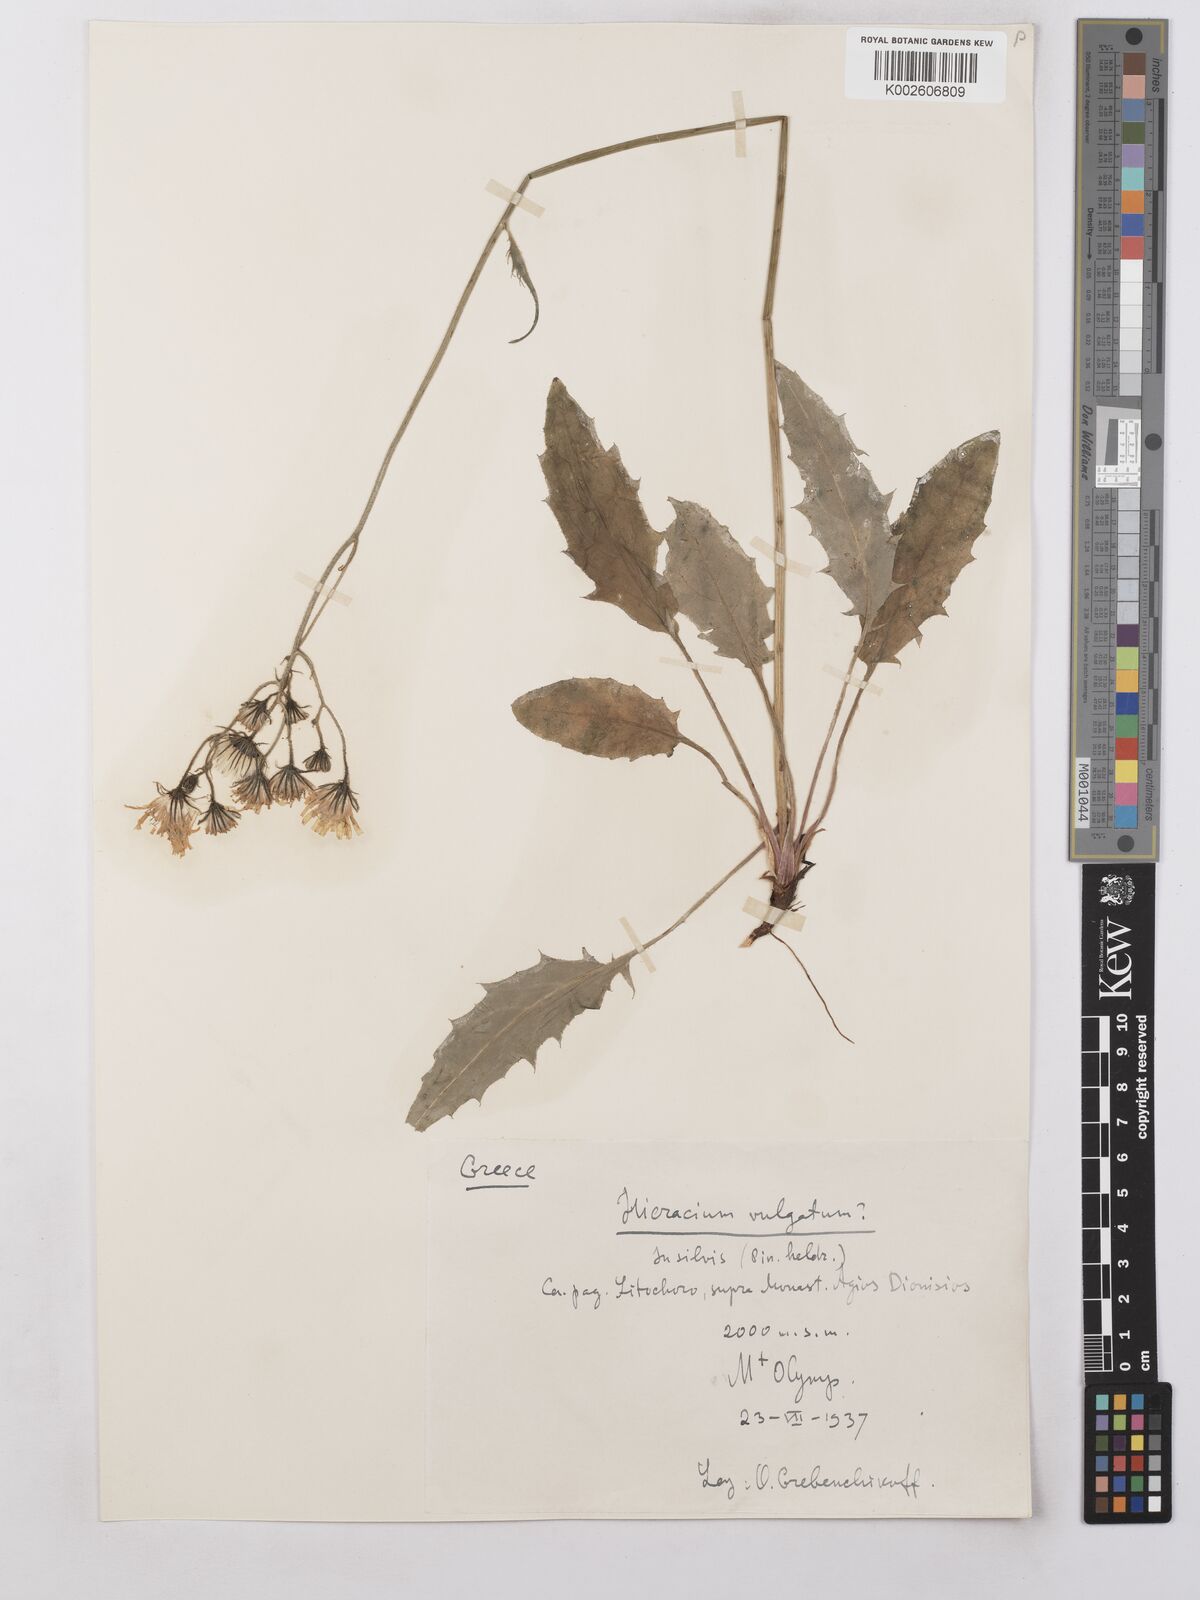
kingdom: Plantae
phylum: Tracheophyta
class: Magnoliopsida
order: Asterales
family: Asteraceae
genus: Hieracium
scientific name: Hieracium lachenalii
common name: Common hawkweed
